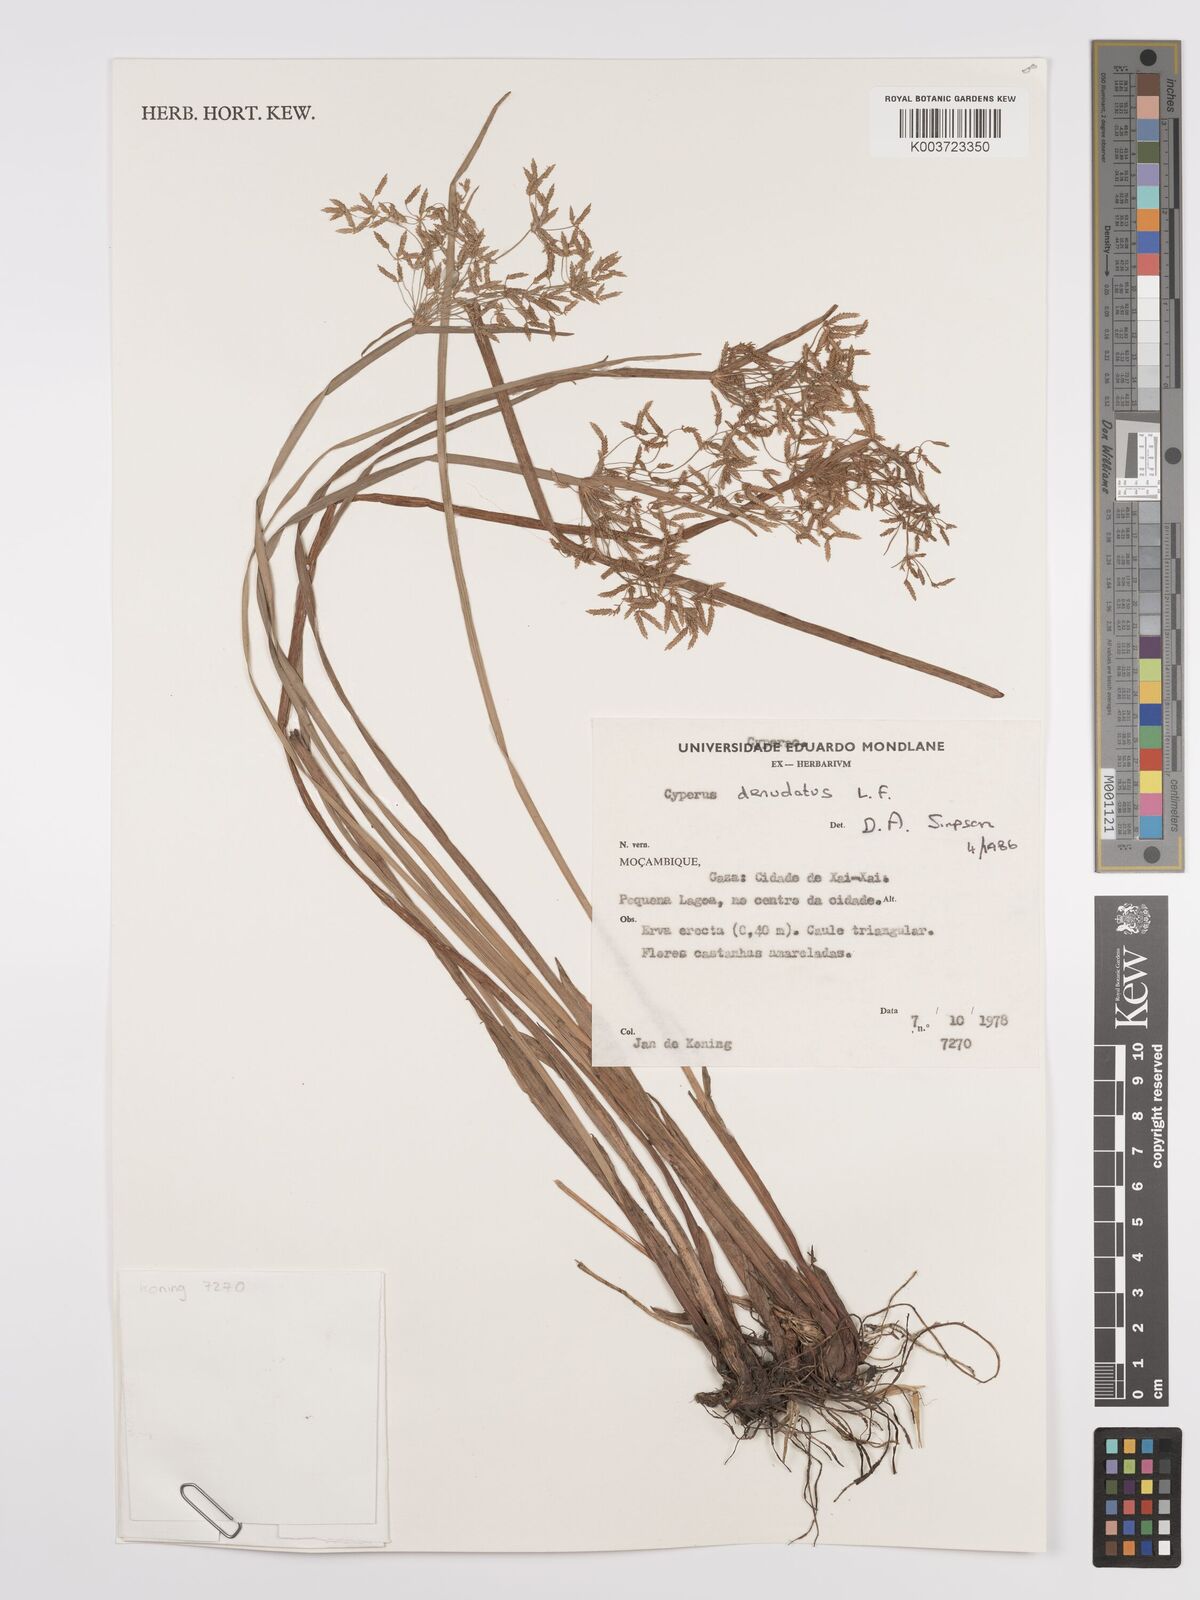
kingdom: Plantae
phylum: Tracheophyta
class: Liliopsida
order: Poales
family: Cyperaceae
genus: Cyperus
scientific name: Cyperus denudatus
